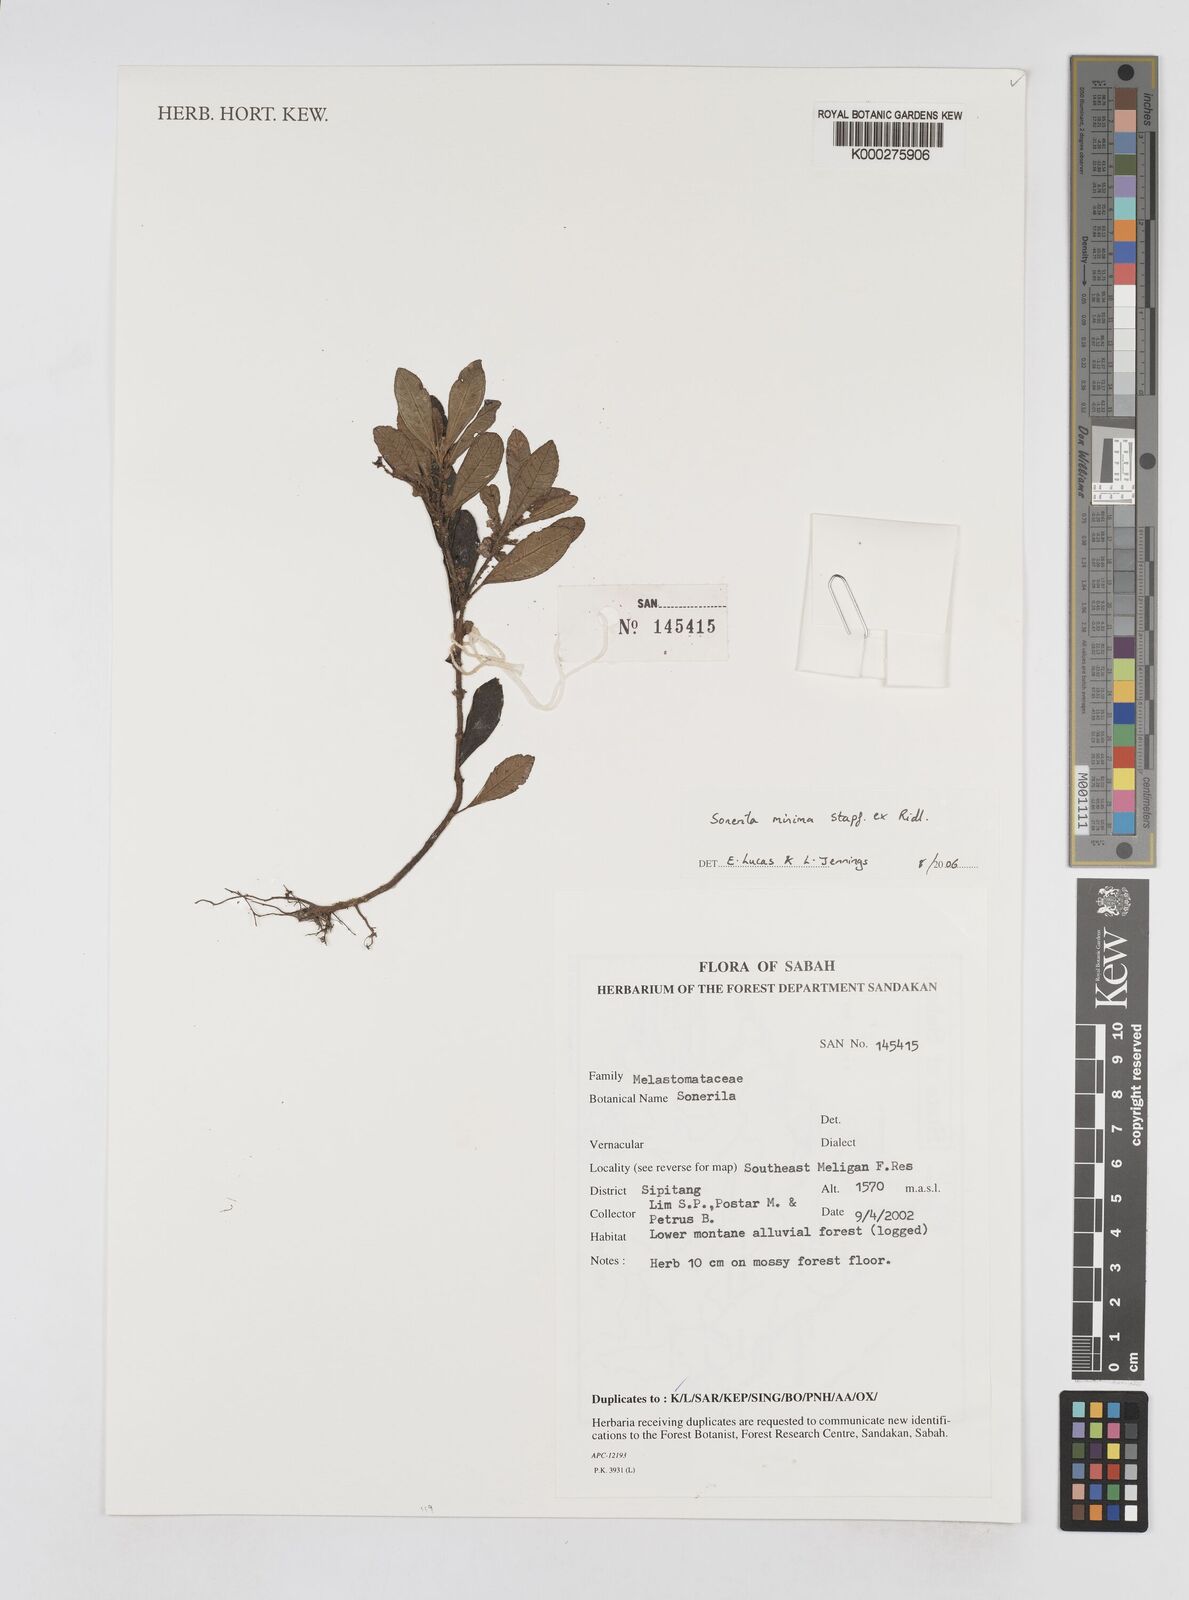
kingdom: Plantae
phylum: Tracheophyta
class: Magnoliopsida
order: Myrtales
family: Melastomataceae
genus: Sonerila
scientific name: Sonerila minima
